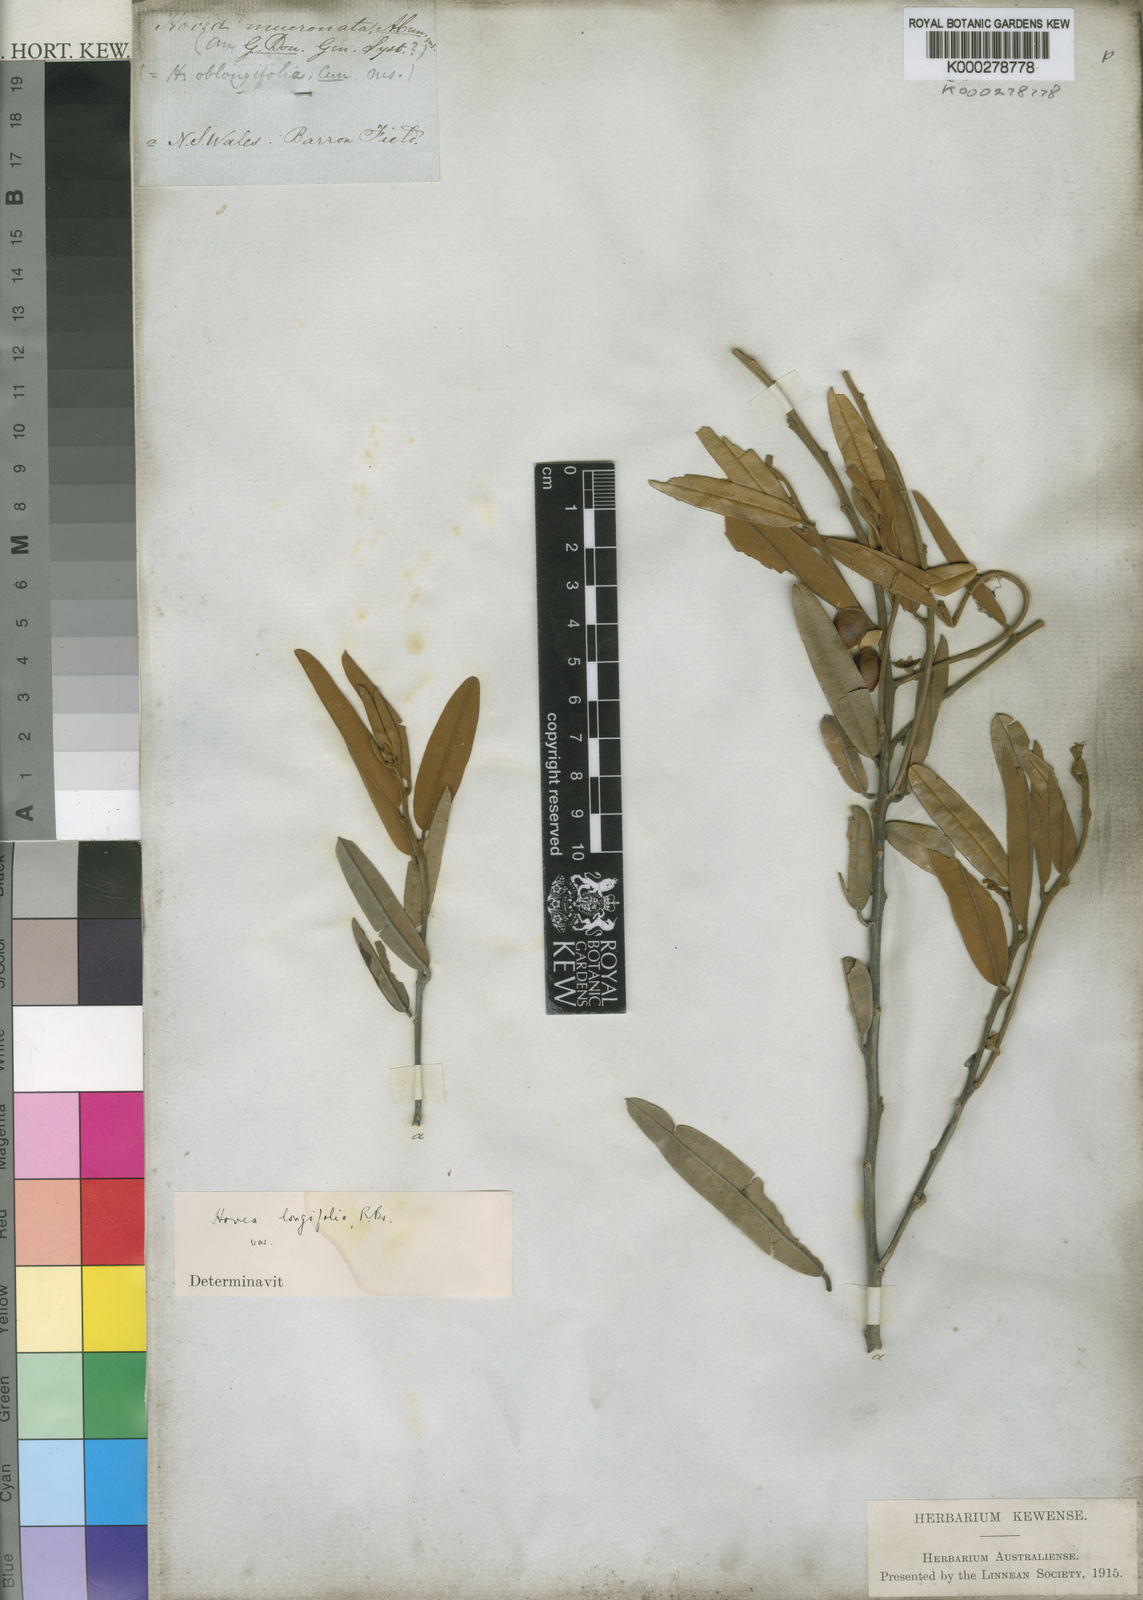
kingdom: Plantae
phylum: Tracheophyta
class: Magnoliopsida
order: Fabales
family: Fabaceae
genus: Hovea
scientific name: Hovea longifolia
